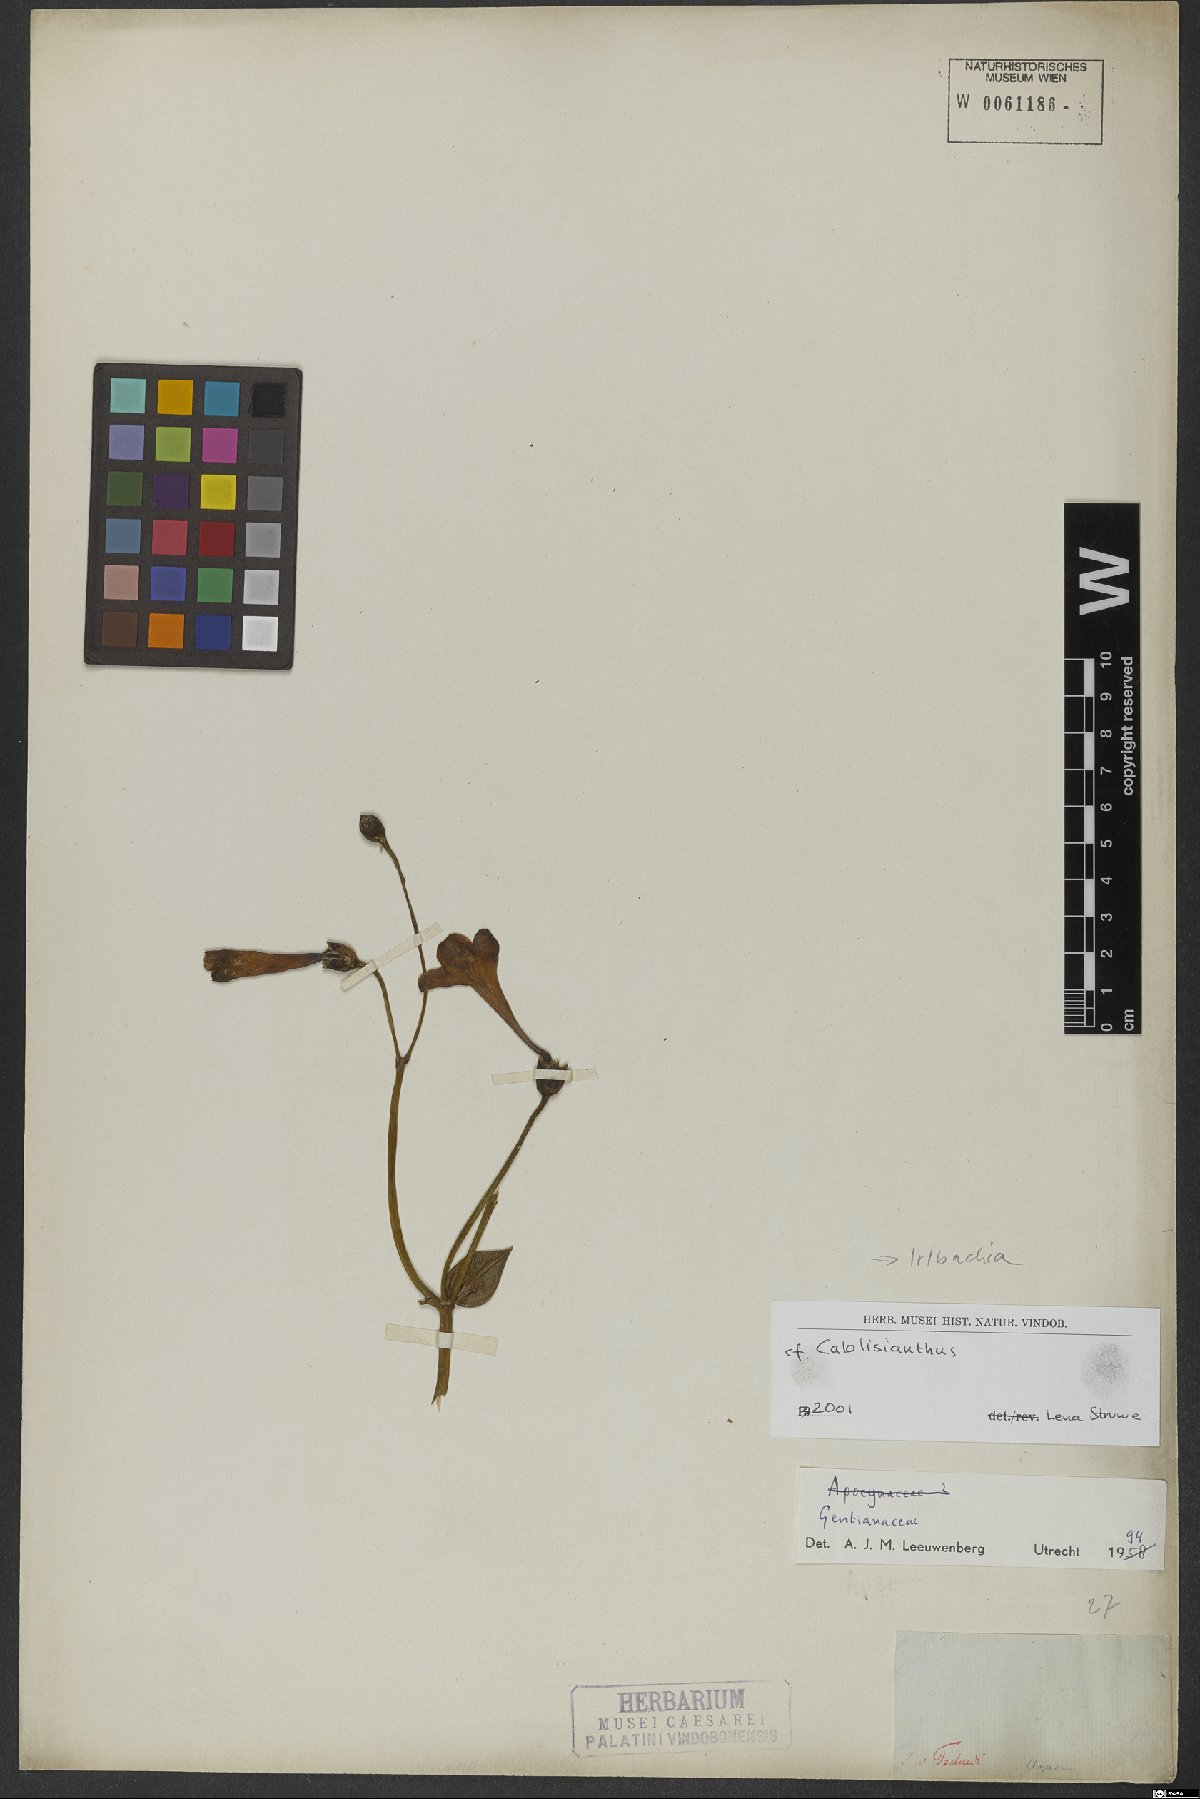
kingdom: Plantae
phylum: Tracheophyta
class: Magnoliopsida
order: Gentianales
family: Gentianaceae
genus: Irlbachia
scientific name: Irlbachia
